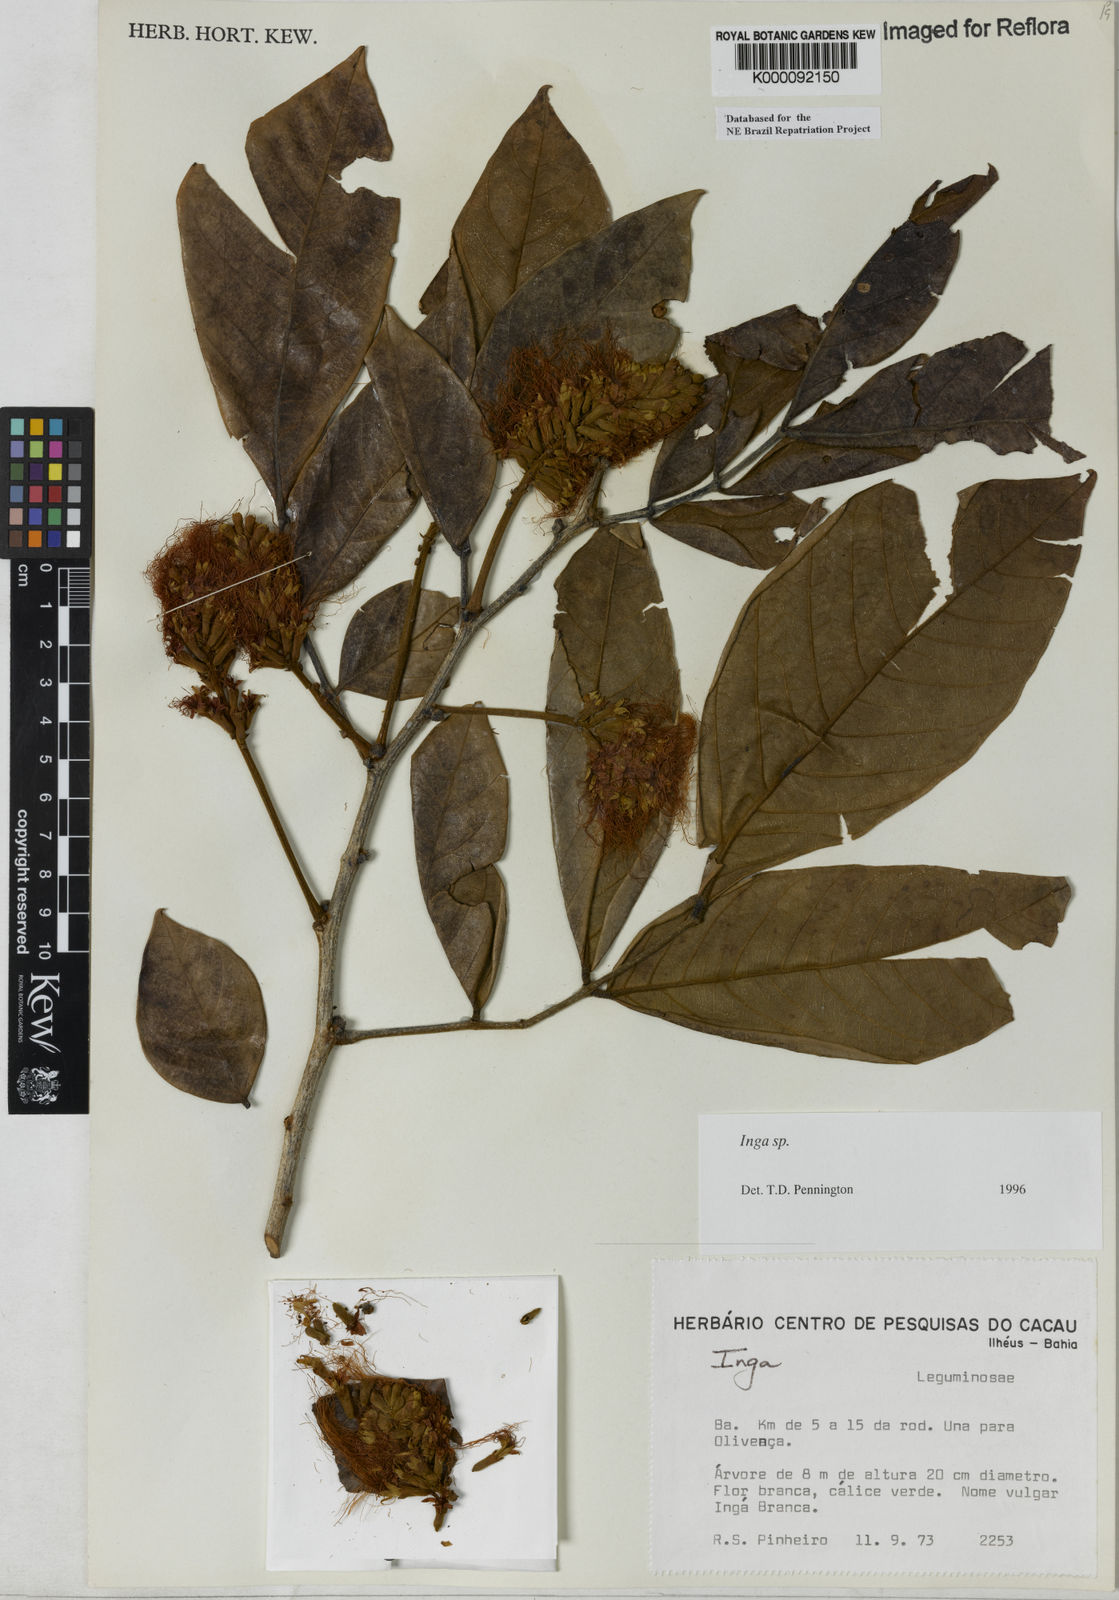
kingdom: Plantae
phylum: Tracheophyta
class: Magnoliopsida
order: Fabales
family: Fabaceae
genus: Inga
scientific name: Inga
